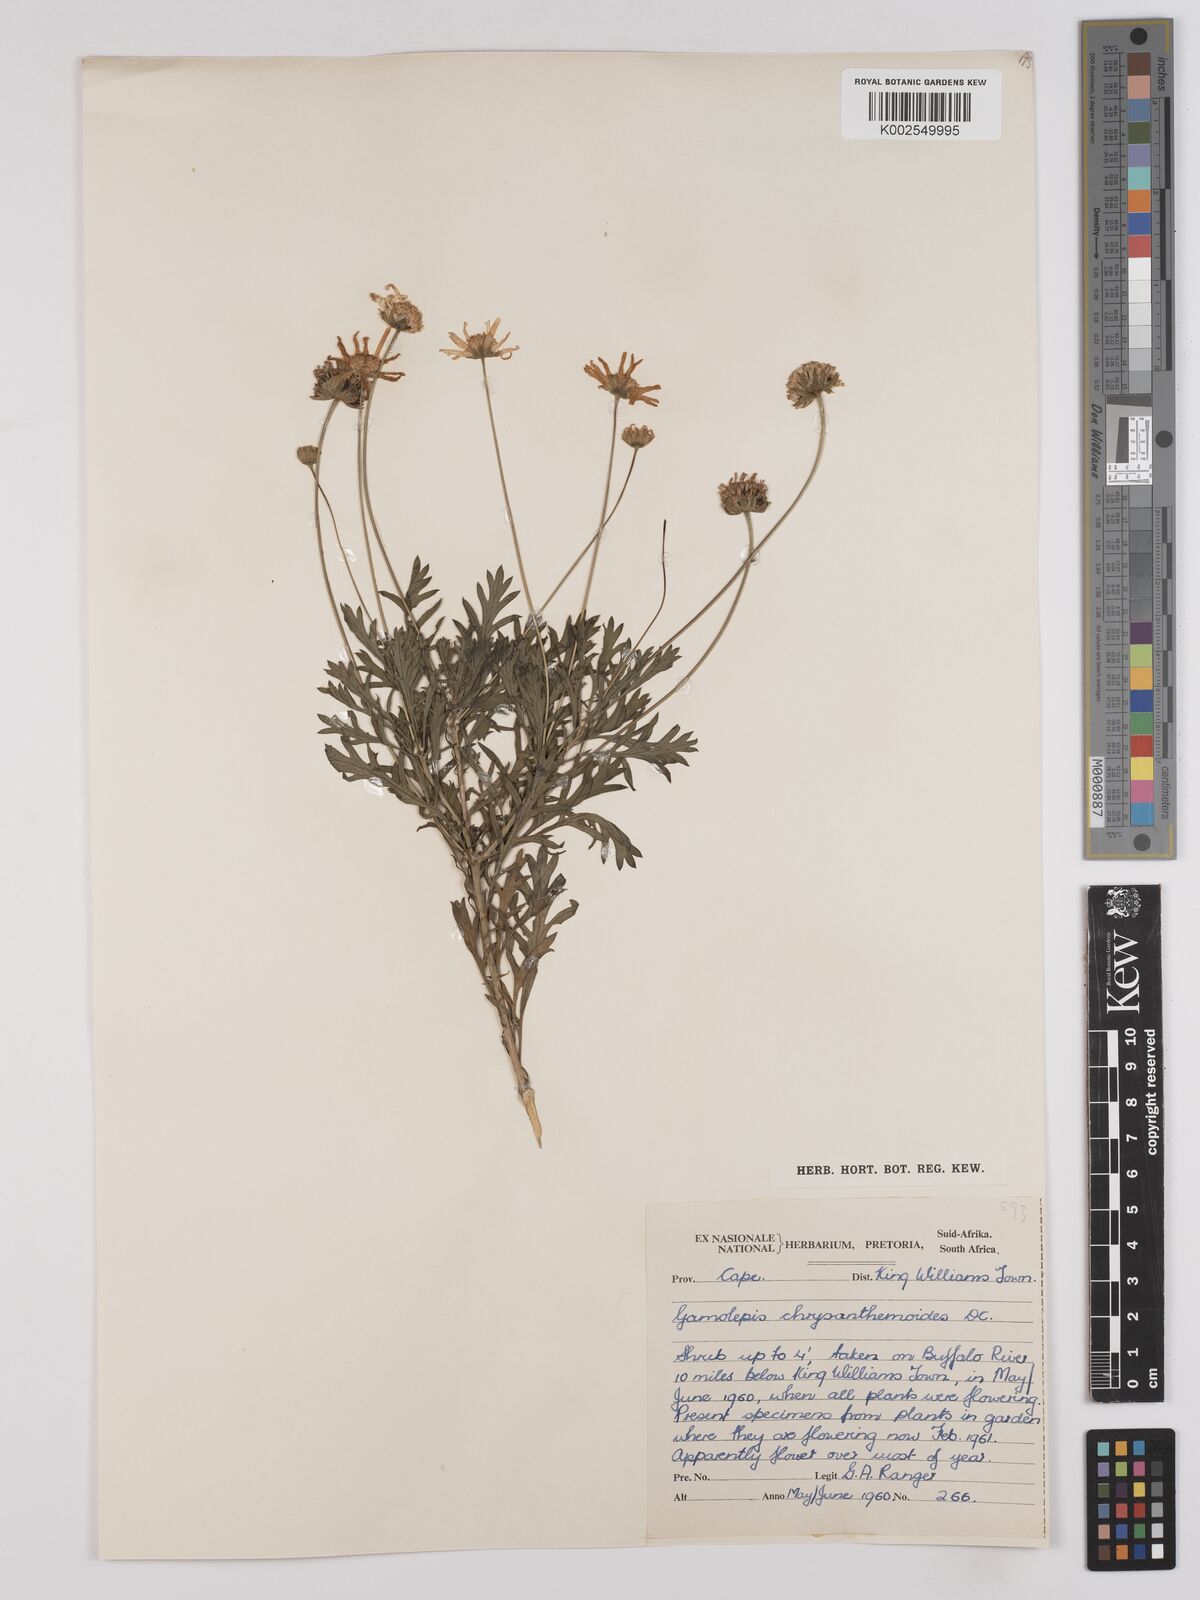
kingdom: Plantae
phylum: Tracheophyta
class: Magnoliopsida
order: Asterales
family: Asteraceae
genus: Euryops
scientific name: Euryops chrysanthemoides
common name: Bull's eye
